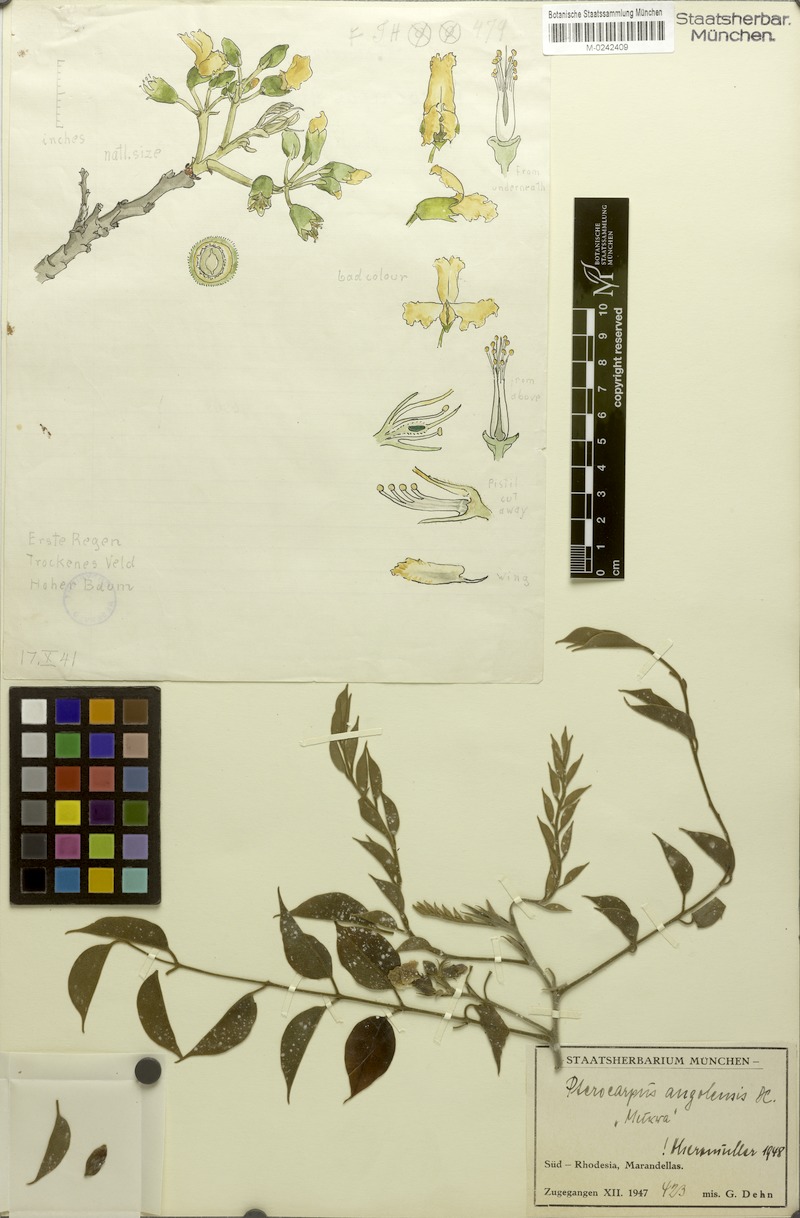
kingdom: Plantae
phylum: Tracheophyta
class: Magnoliopsida
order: Fabales
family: Fabaceae
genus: Pterocarpus
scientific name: Pterocarpus angolensis
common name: Bloodwood tree
